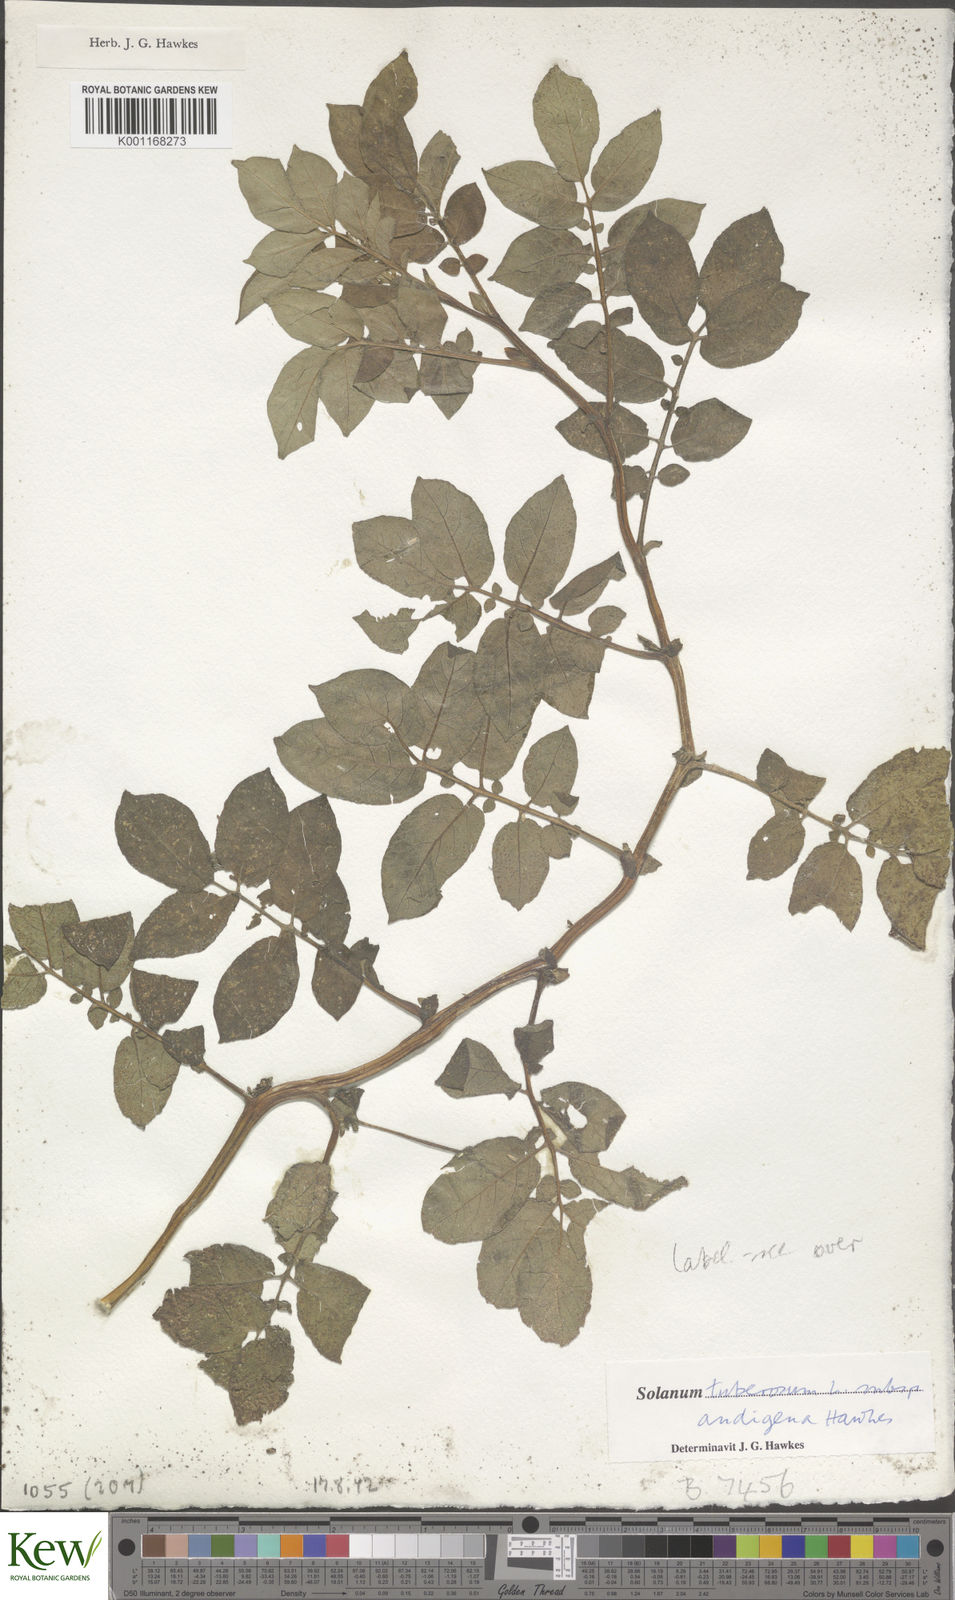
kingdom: Plantae
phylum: Tracheophyta
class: Magnoliopsida
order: Solanales
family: Solanaceae
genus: Solanum
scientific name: Solanum tuberosum
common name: Potato
